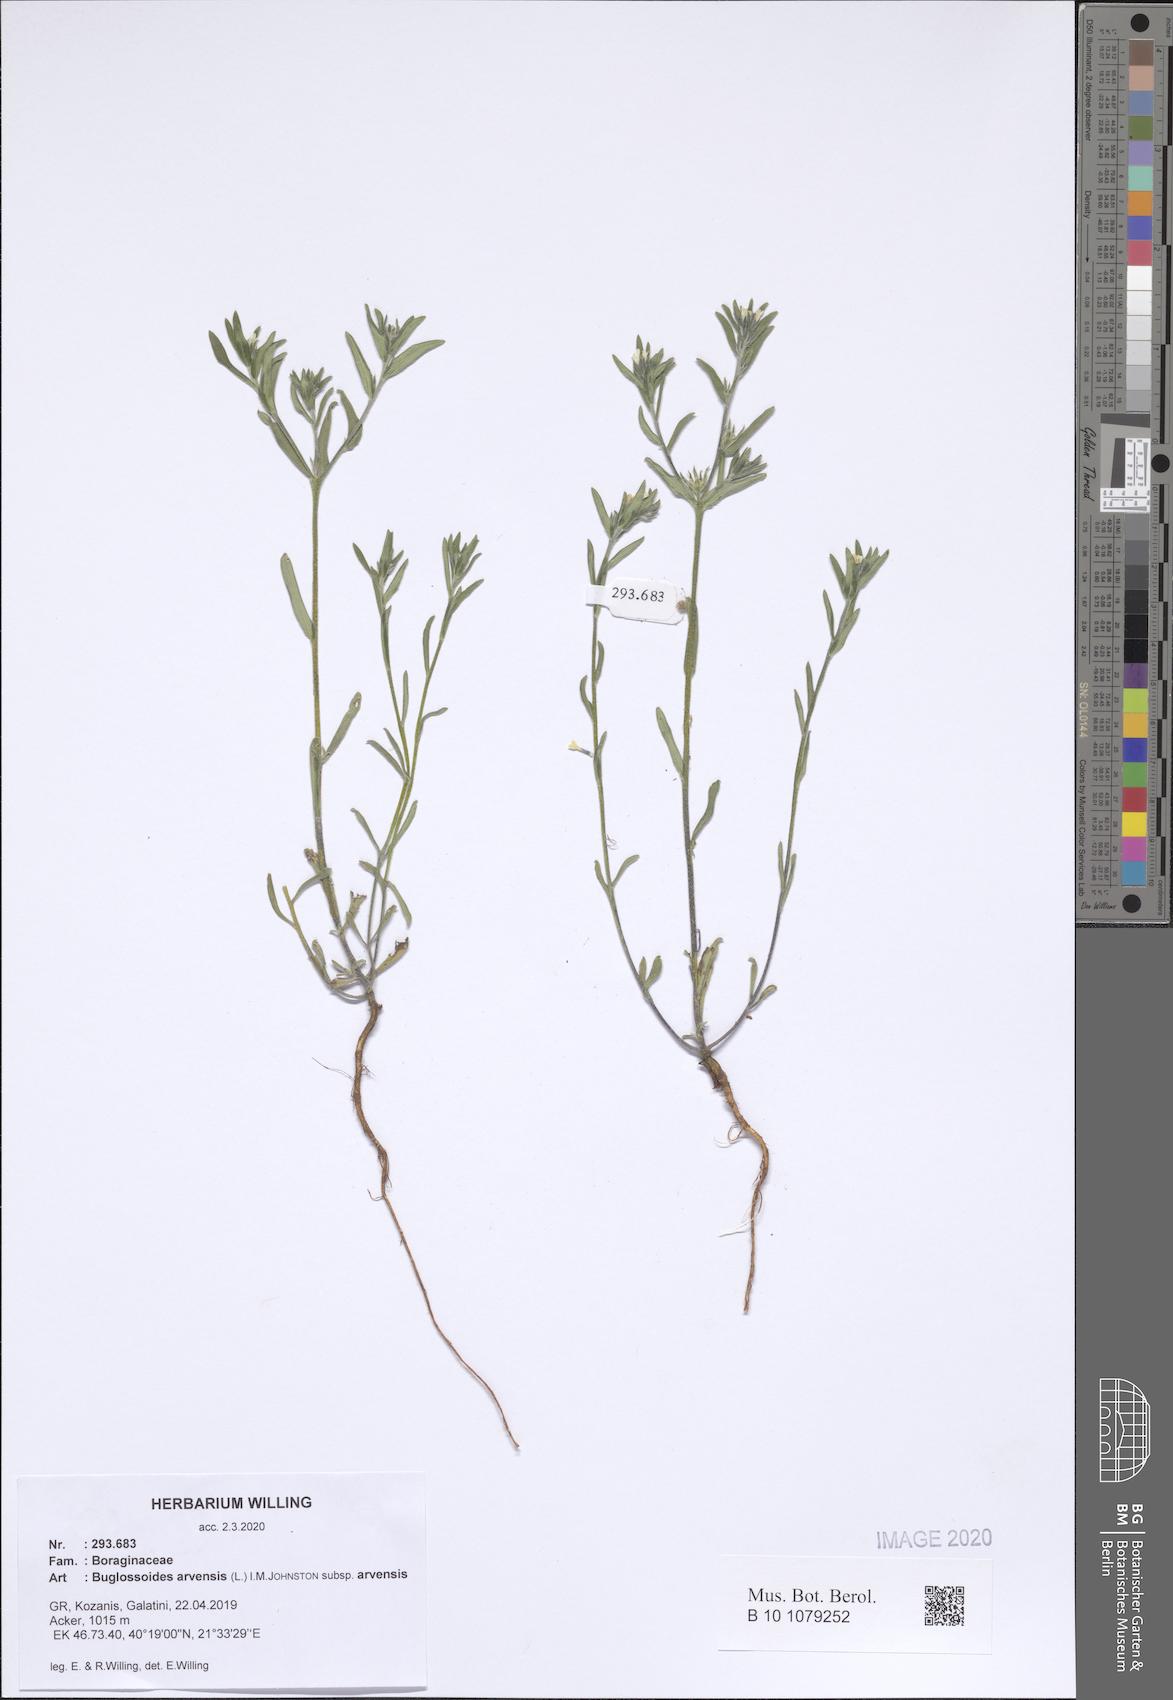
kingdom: Plantae
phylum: Tracheophyta
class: Magnoliopsida
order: Boraginales
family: Boraginaceae
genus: Buglossoides
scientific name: Buglossoides arvensis
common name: Corn gromwell
